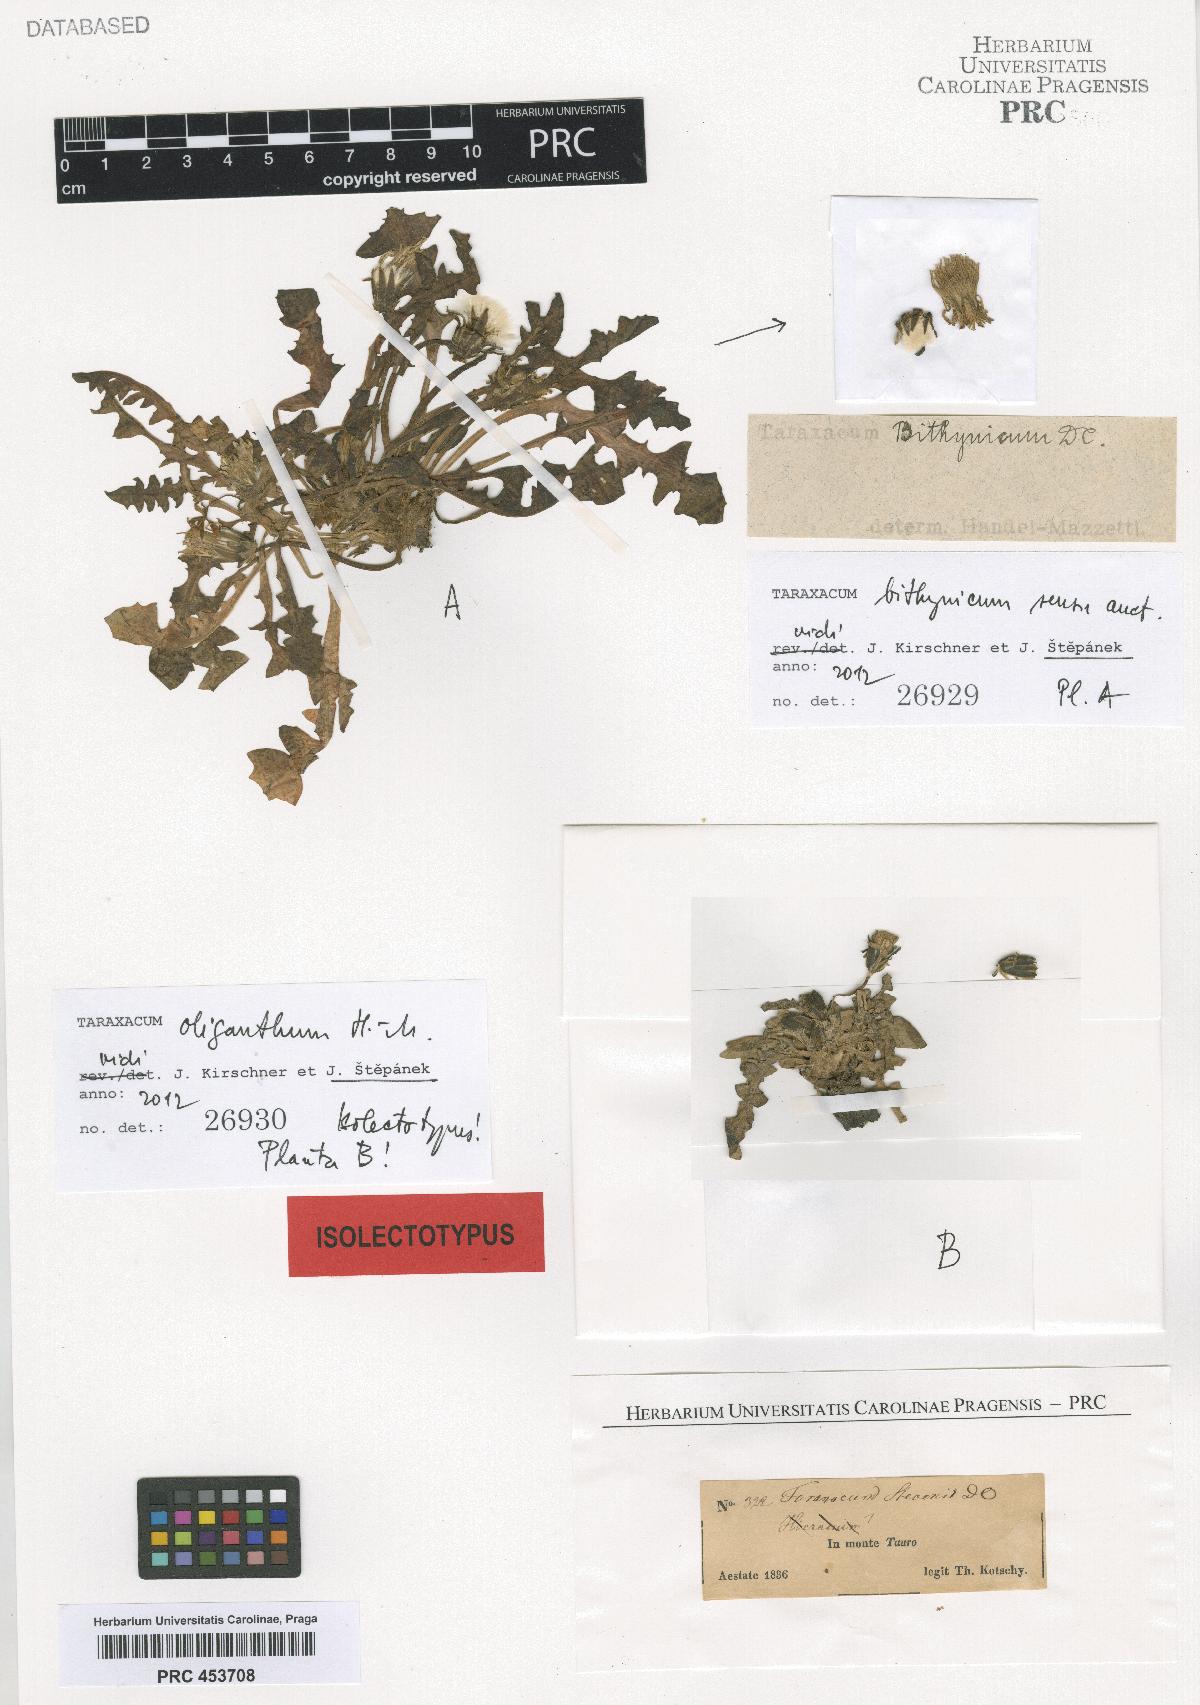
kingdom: Plantae
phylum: Tracheophyta
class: Magnoliopsida
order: Asterales
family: Asteraceae
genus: Taraxacum
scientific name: Taraxacum oliganthum
